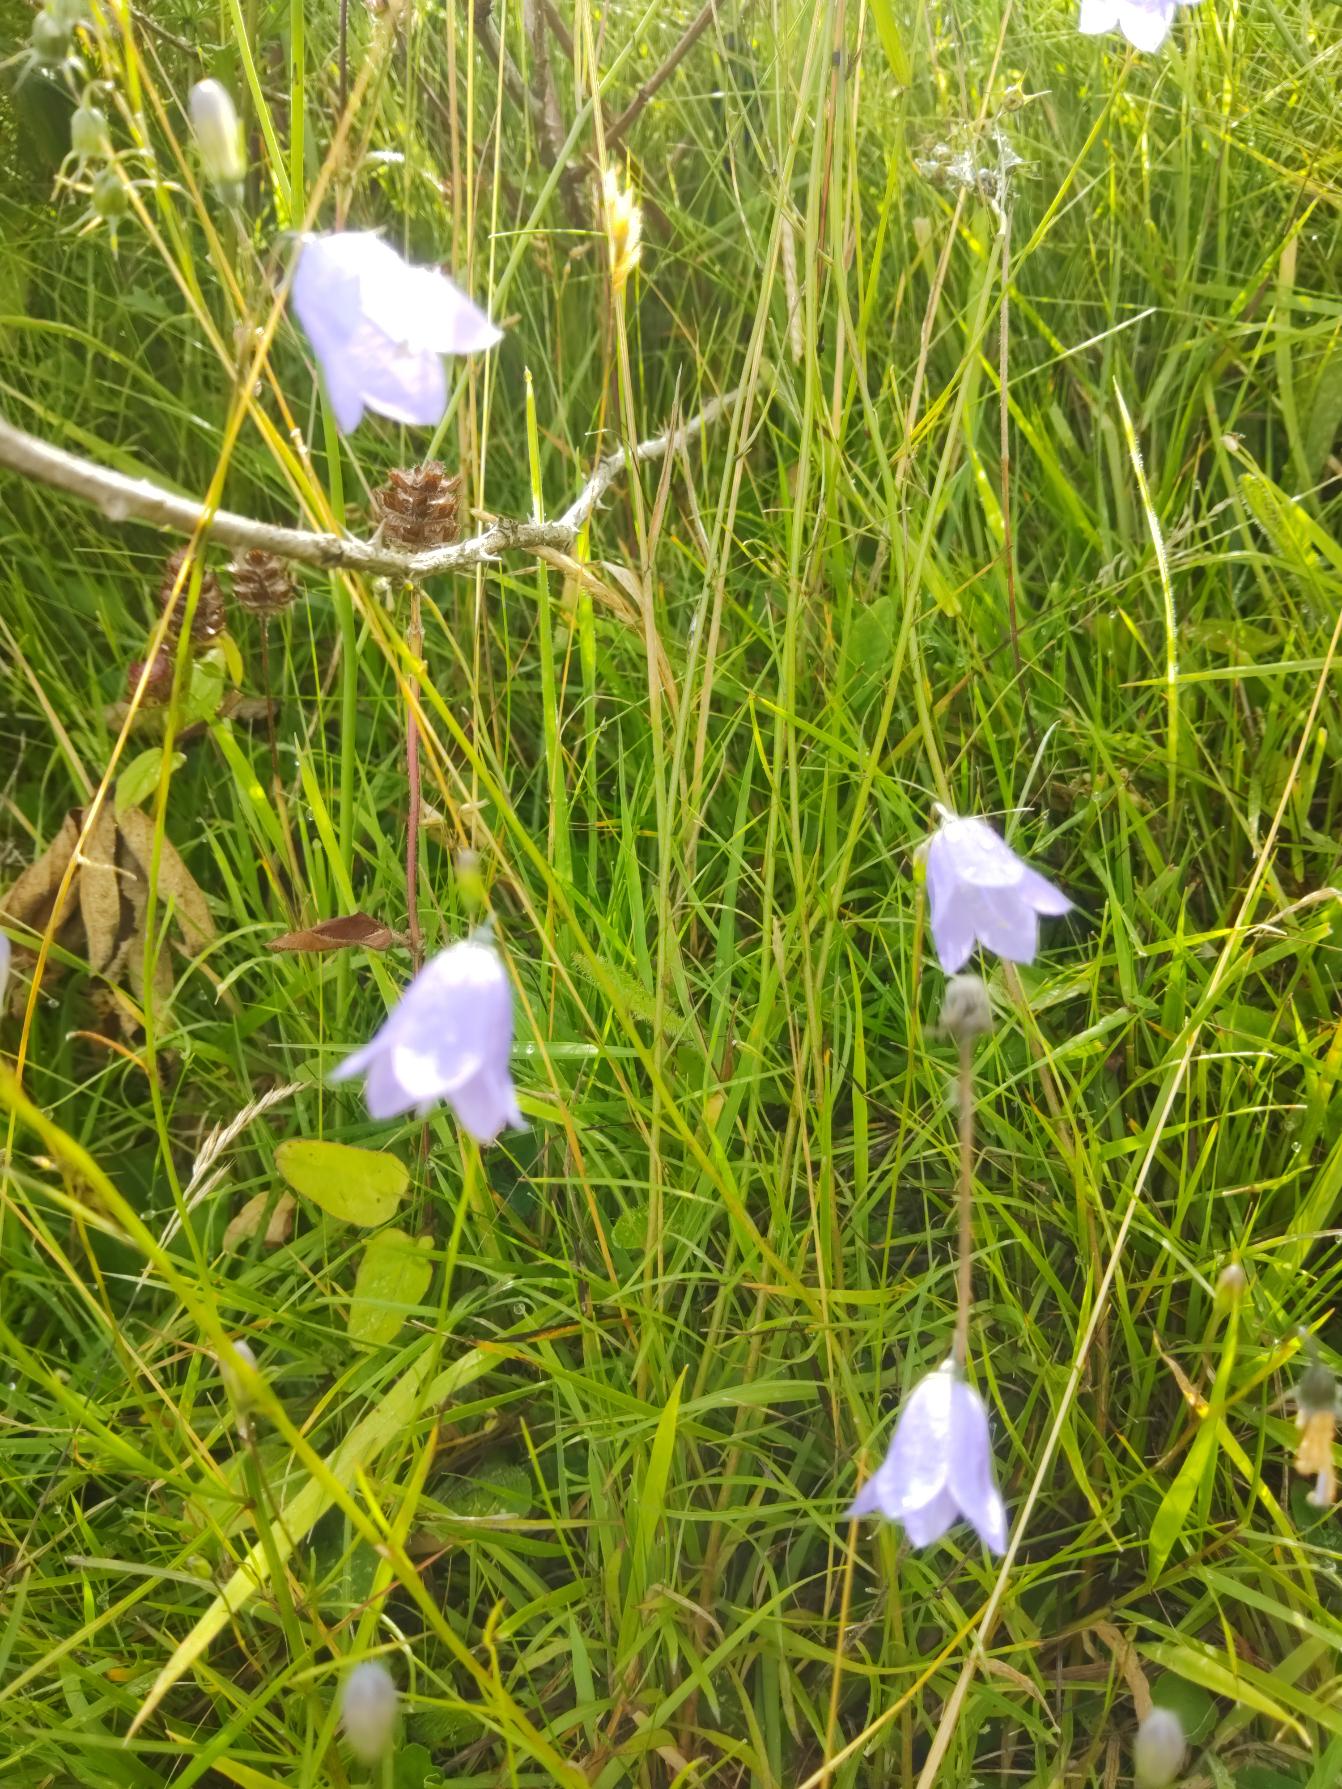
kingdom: Plantae
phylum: Tracheophyta
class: Magnoliopsida
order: Asterales
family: Campanulaceae
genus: Campanula
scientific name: Campanula rotundifolia
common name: Liden klokke
